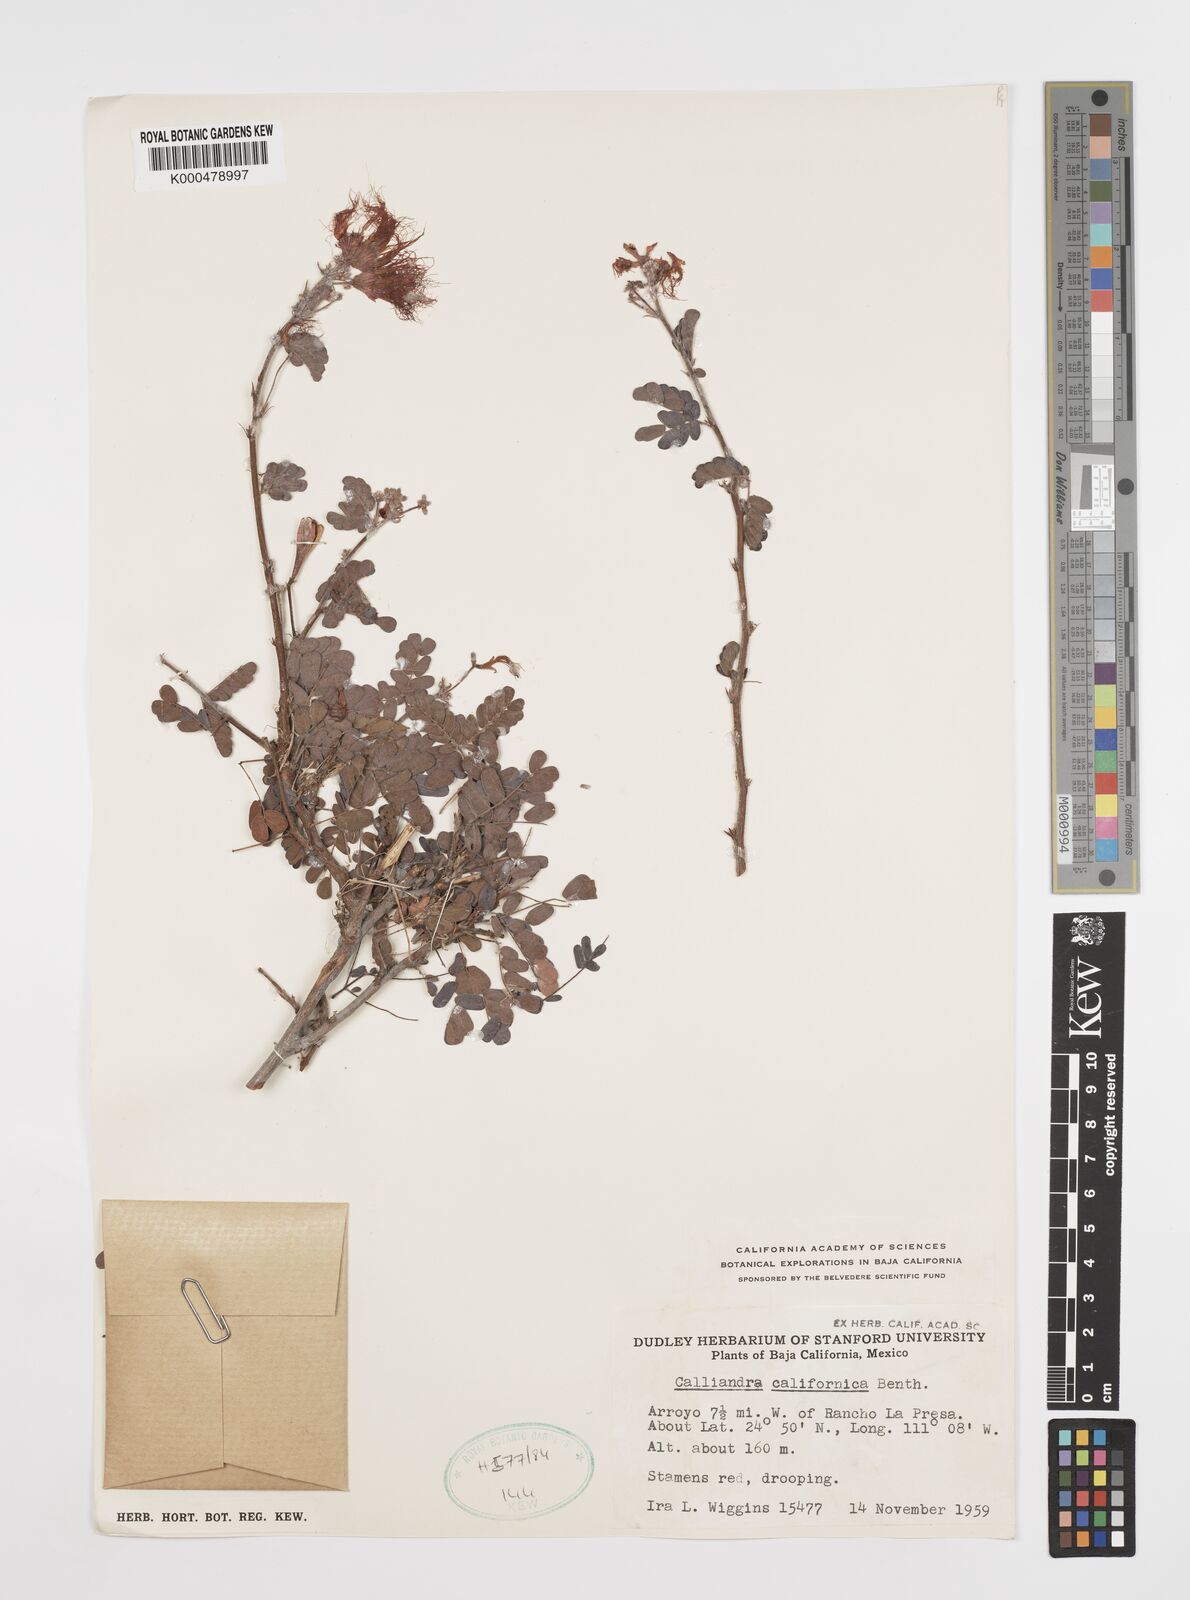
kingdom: Plantae
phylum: Tracheophyta
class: Magnoliopsida
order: Fabales
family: Fabaceae
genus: Calliandra
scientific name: Calliandra californica
